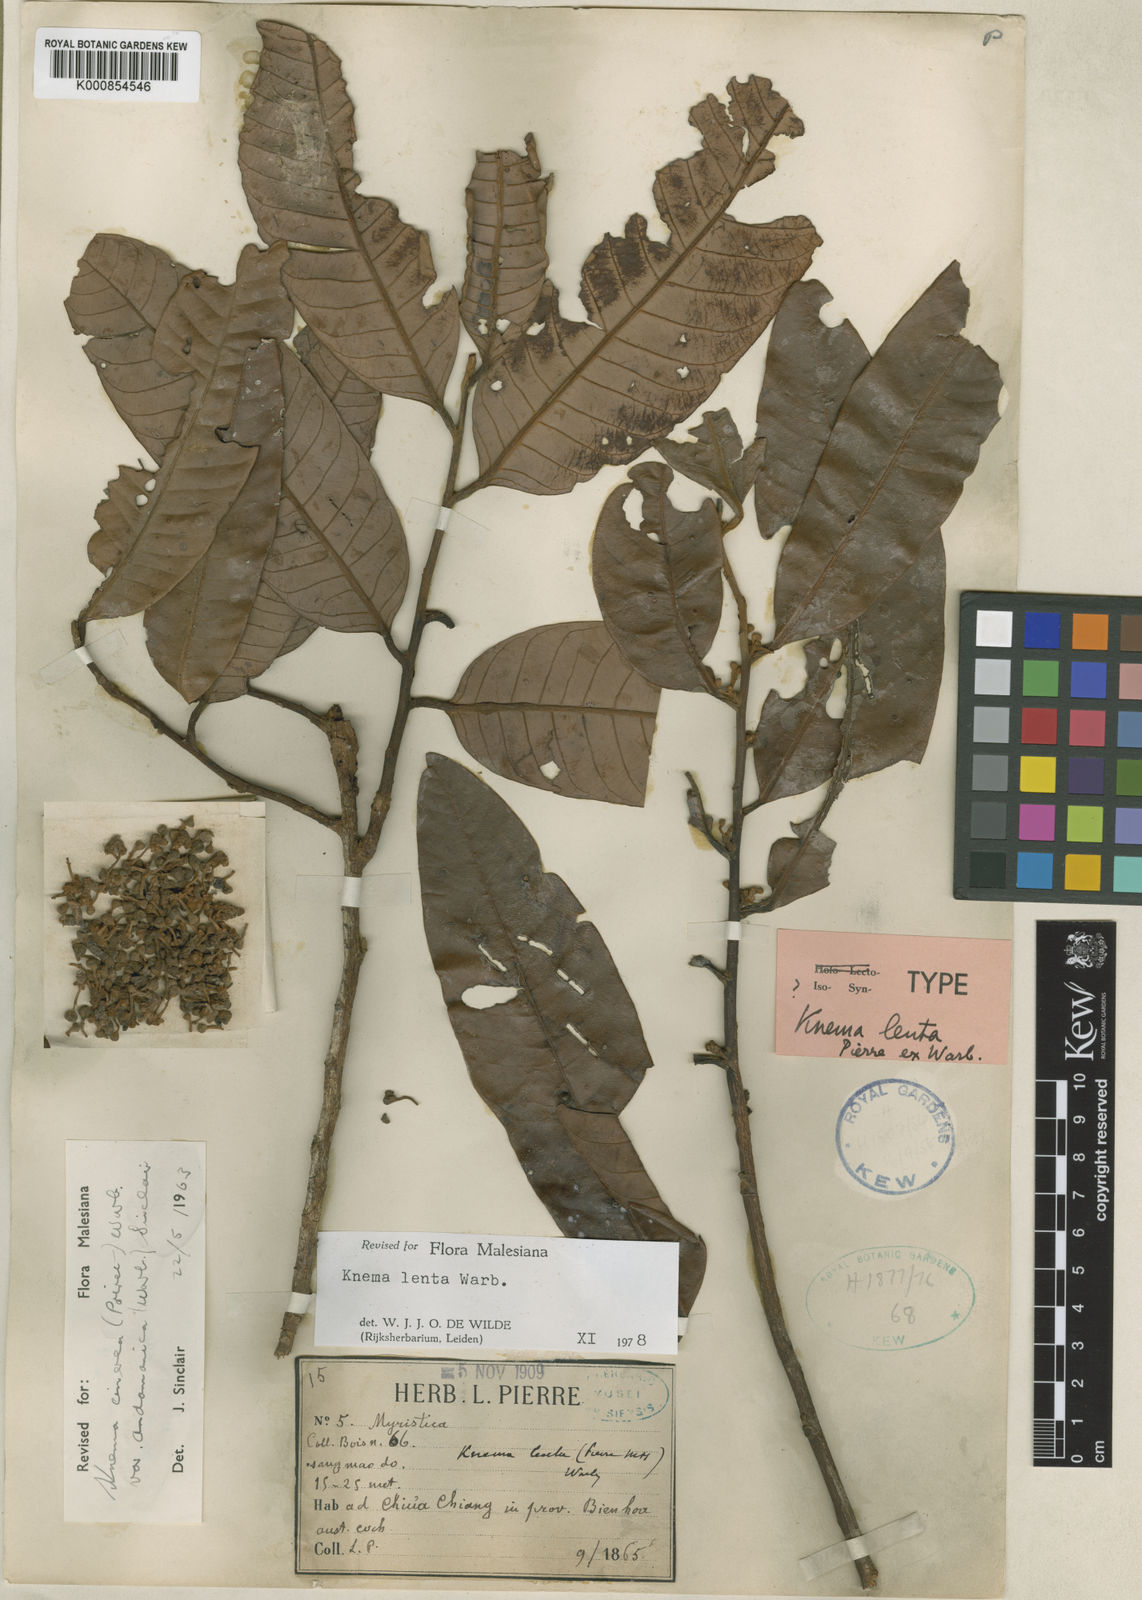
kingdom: Plantae
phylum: Tracheophyta
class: Magnoliopsida
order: Magnoliales
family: Myristicaceae
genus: Knema
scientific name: Knema lenta
